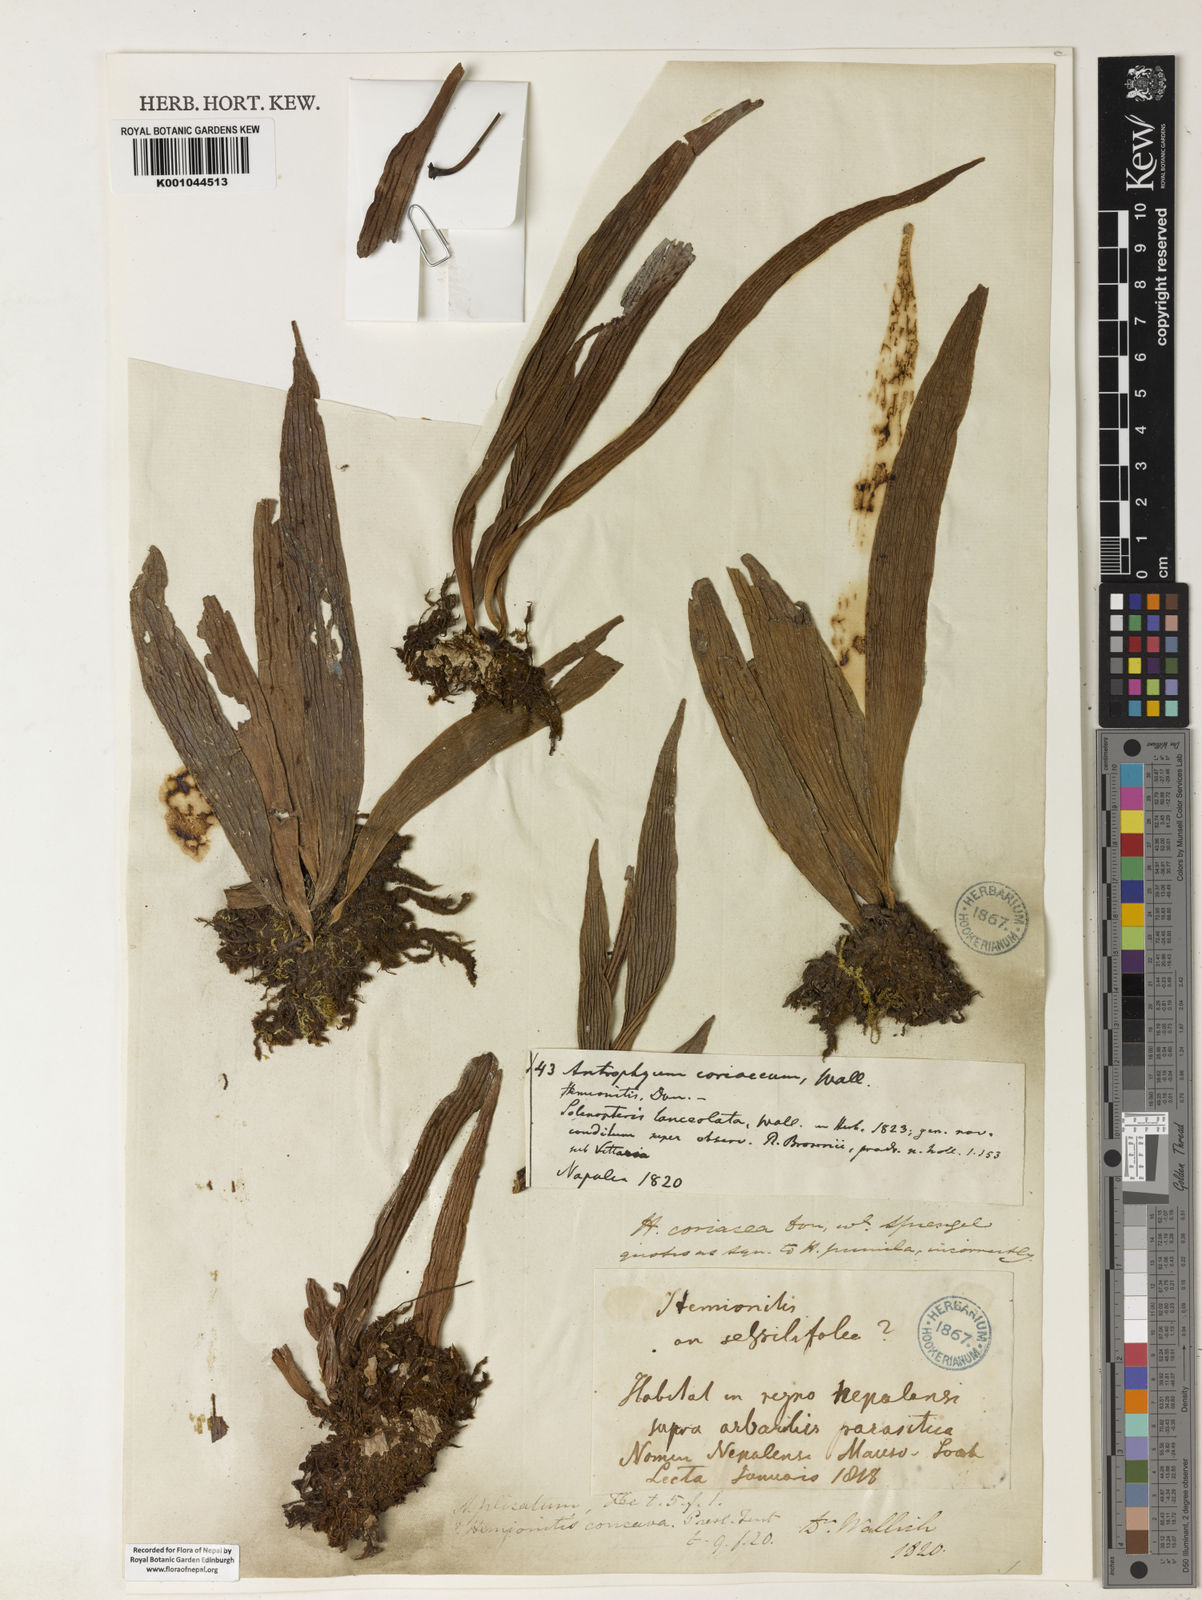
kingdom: Plantae
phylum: Tracheophyta
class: Polypodiopsida
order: Polypodiales
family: Pteridaceae
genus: Antrophyum
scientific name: Antrophyum reticulatum
